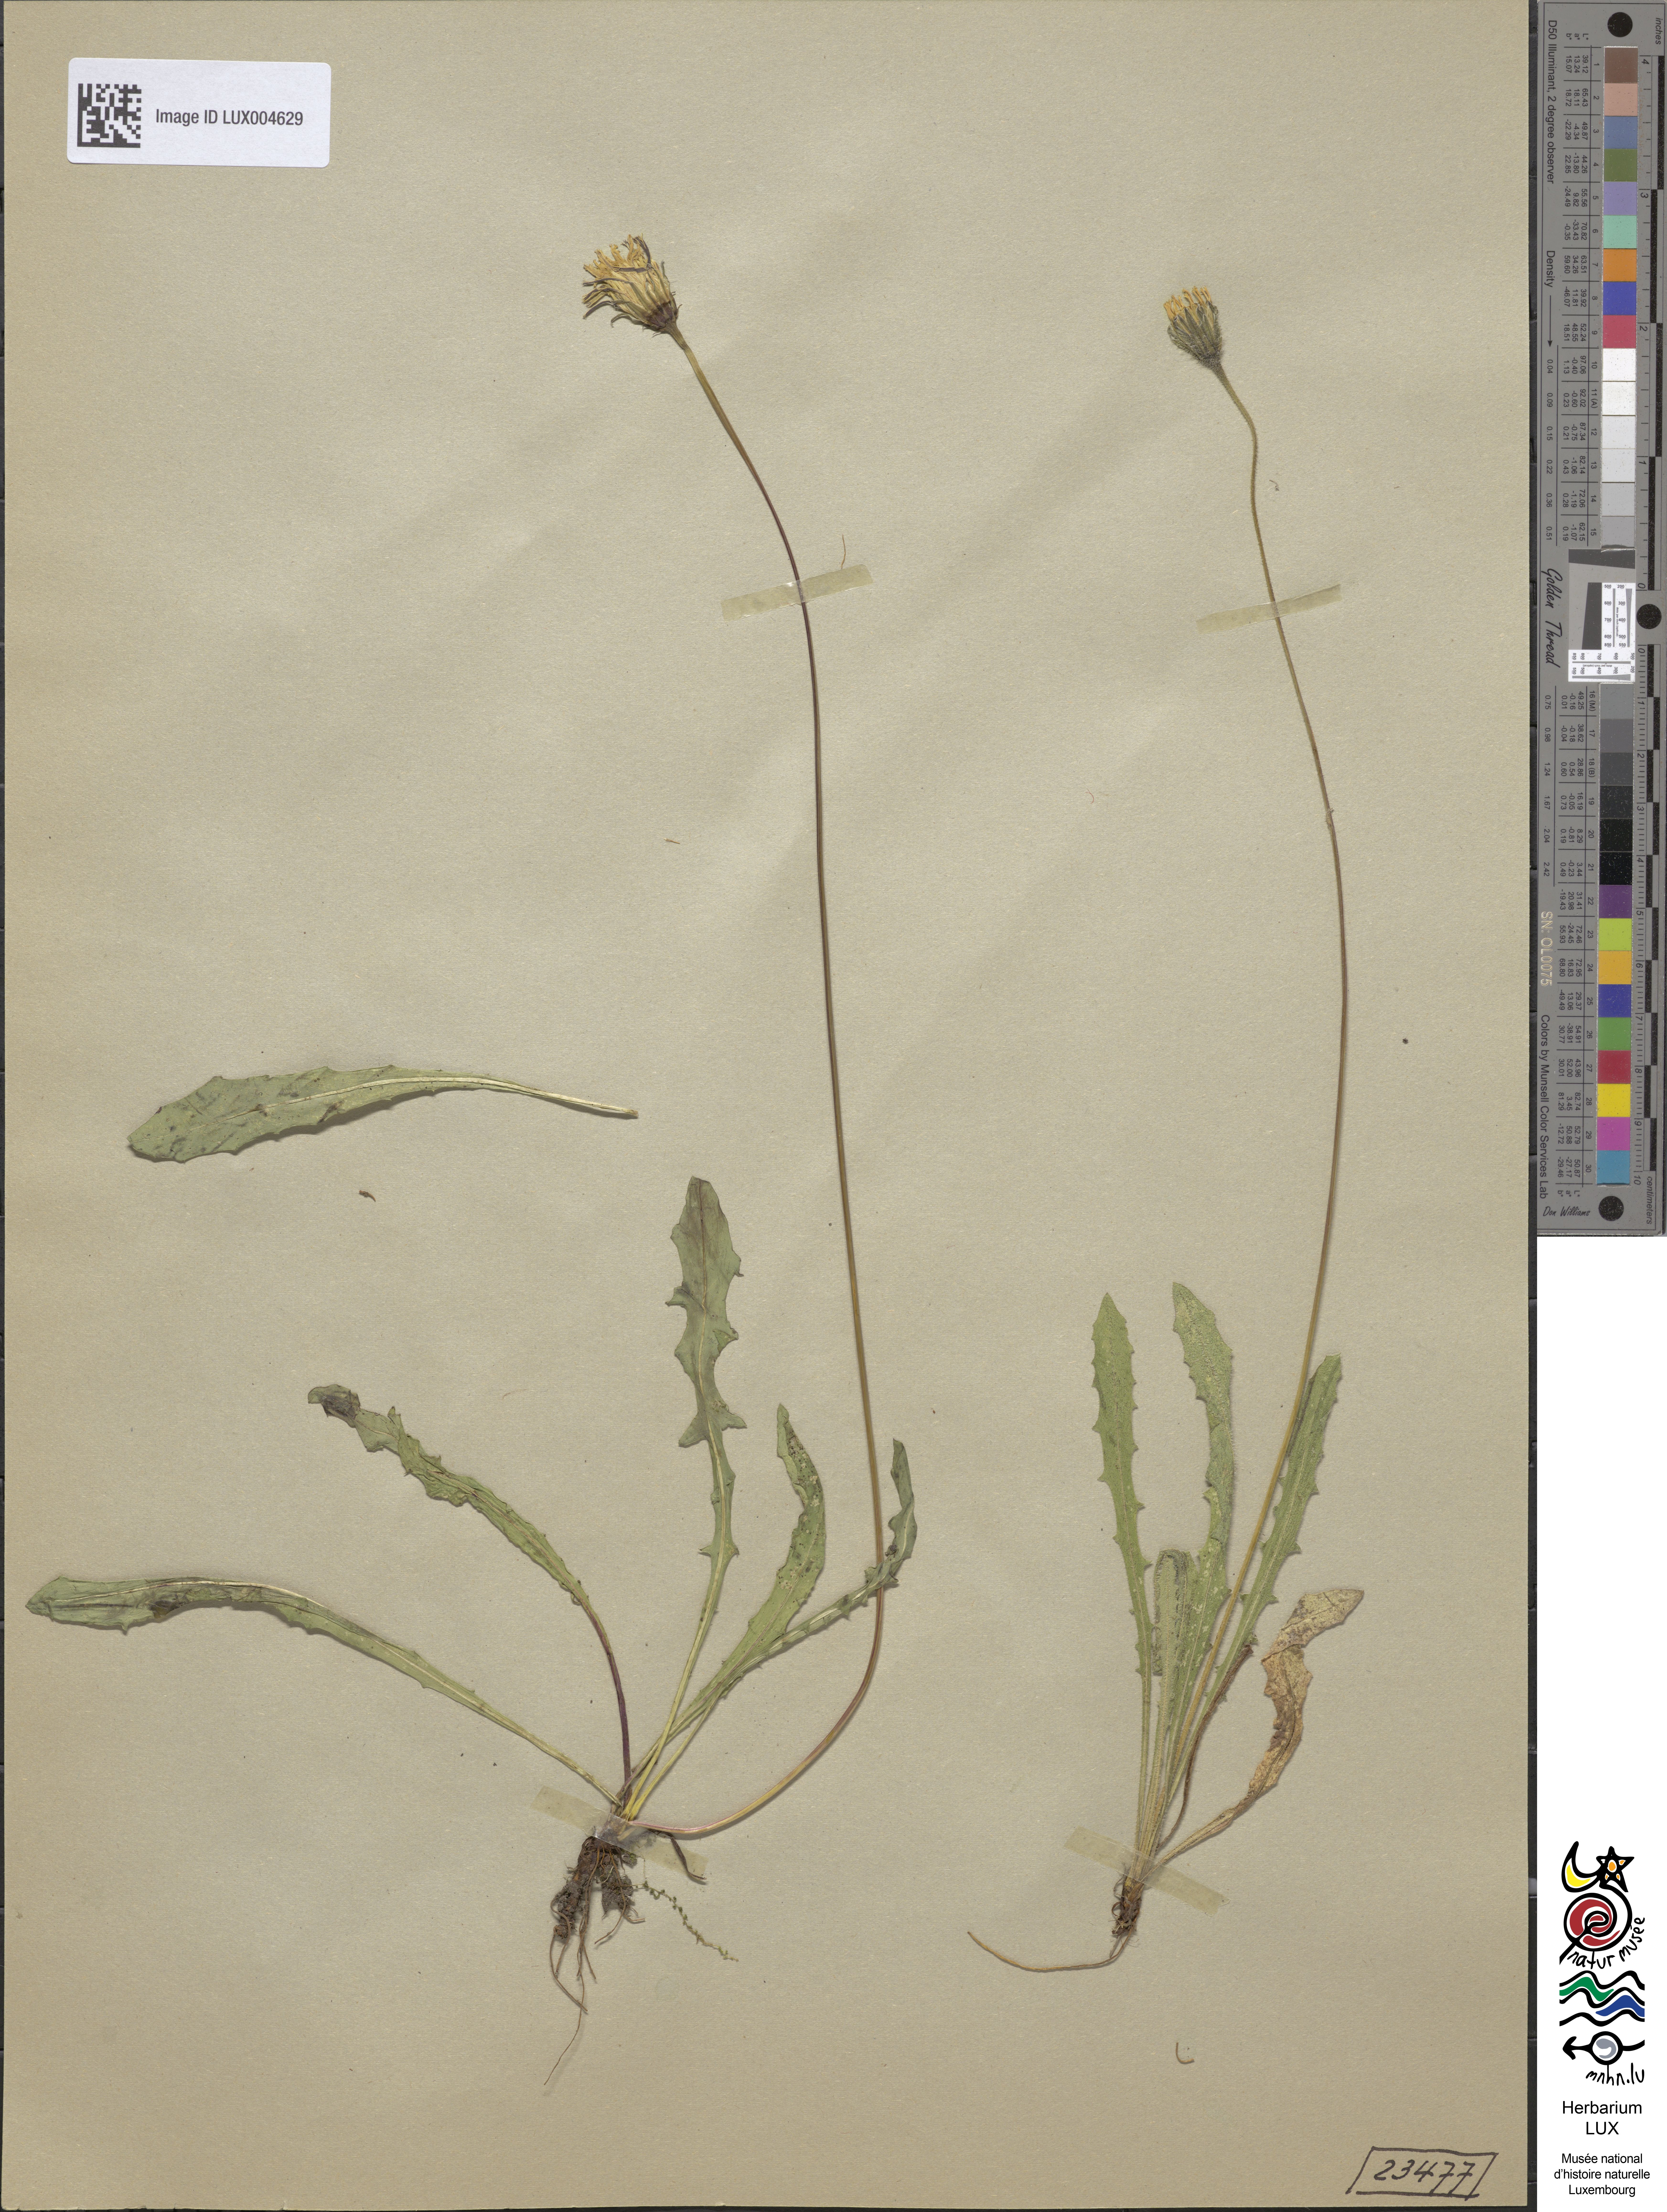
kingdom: Plantae
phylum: Tracheophyta
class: Magnoliopsida
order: Asterales
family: Asteraceae
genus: Leontodon
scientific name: Leontodon hispidus
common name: Rough hawkbit
